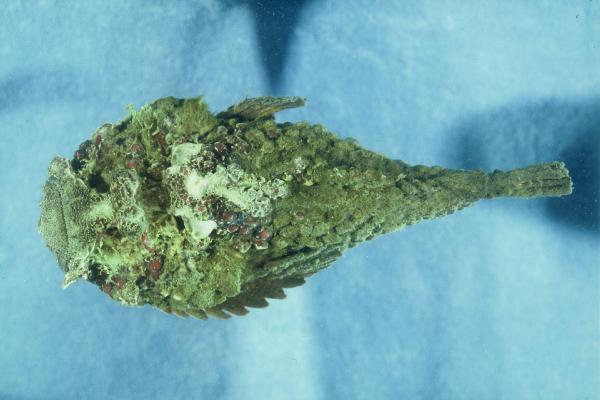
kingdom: Animalia
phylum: Chordata
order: Scorpaeniformes
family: Synanceiidae
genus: Synanceia
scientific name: Synanceia horrida
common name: Estuarine stonefish
